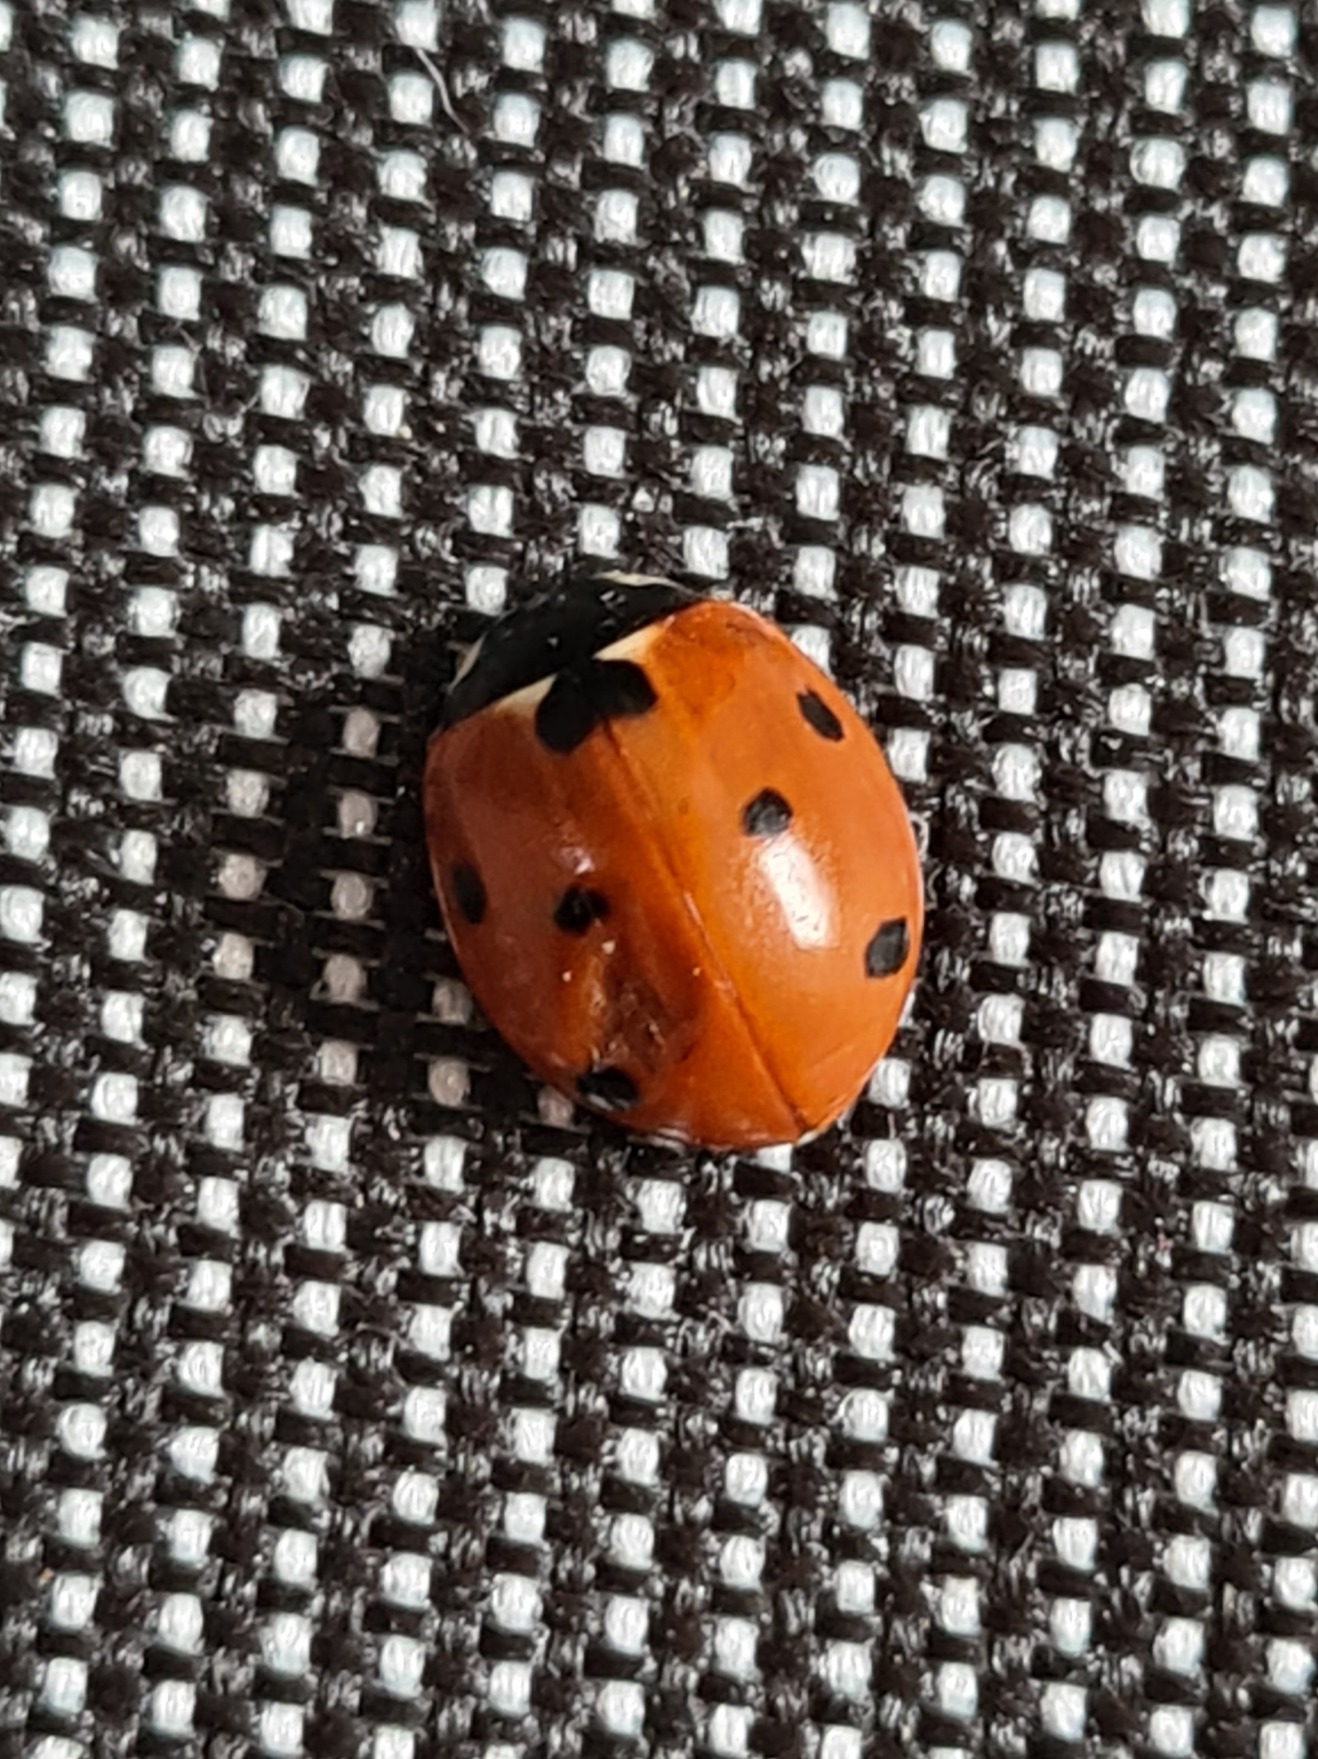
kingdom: Animalia
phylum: Arthropoda
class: Insecta
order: Coleoptera
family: Coccinellidae
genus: Coccinella
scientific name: Coccinella septempunctata
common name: Syvplettet mariehøne
